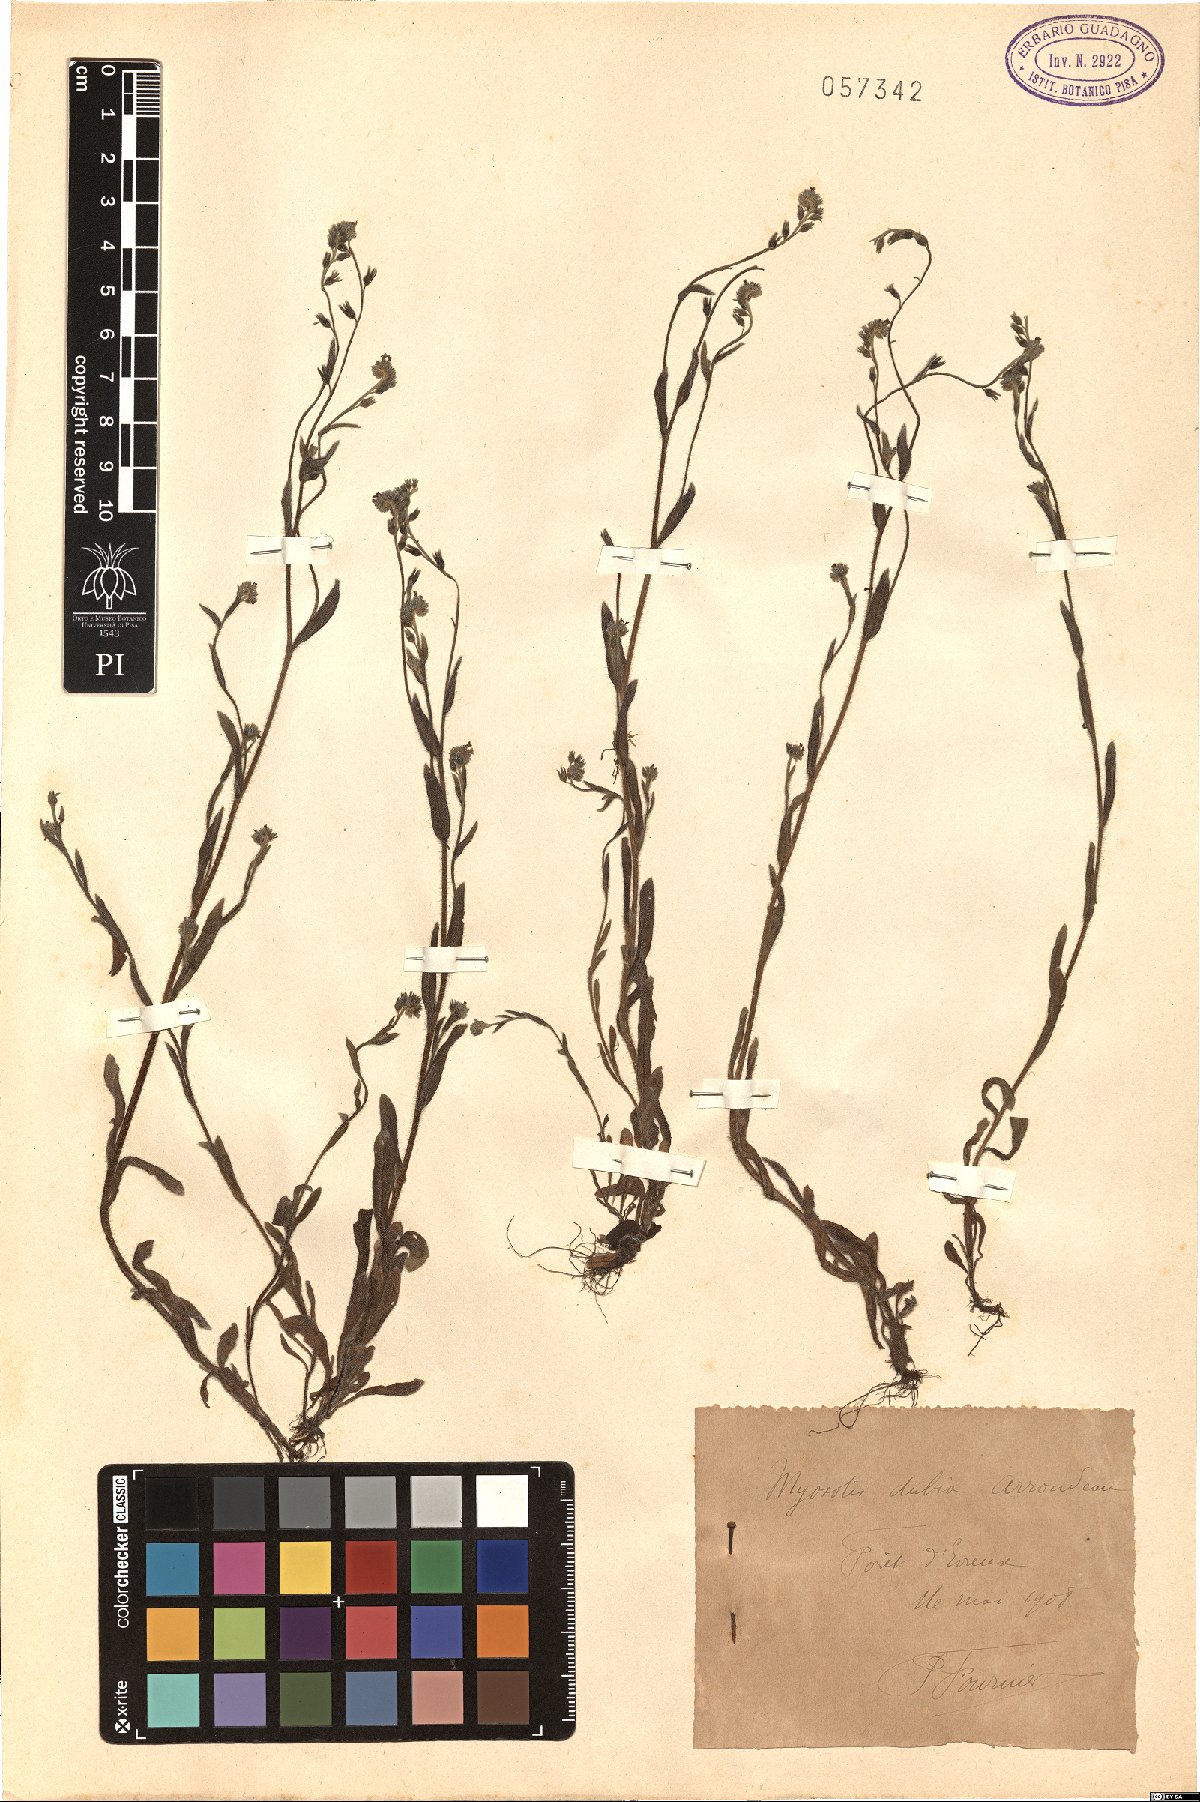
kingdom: Plantae
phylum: Tracheophyta
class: Magnoliopsida
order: Boraginales
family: Boraginaceae
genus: Myosotis
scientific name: Myosotis dubia
